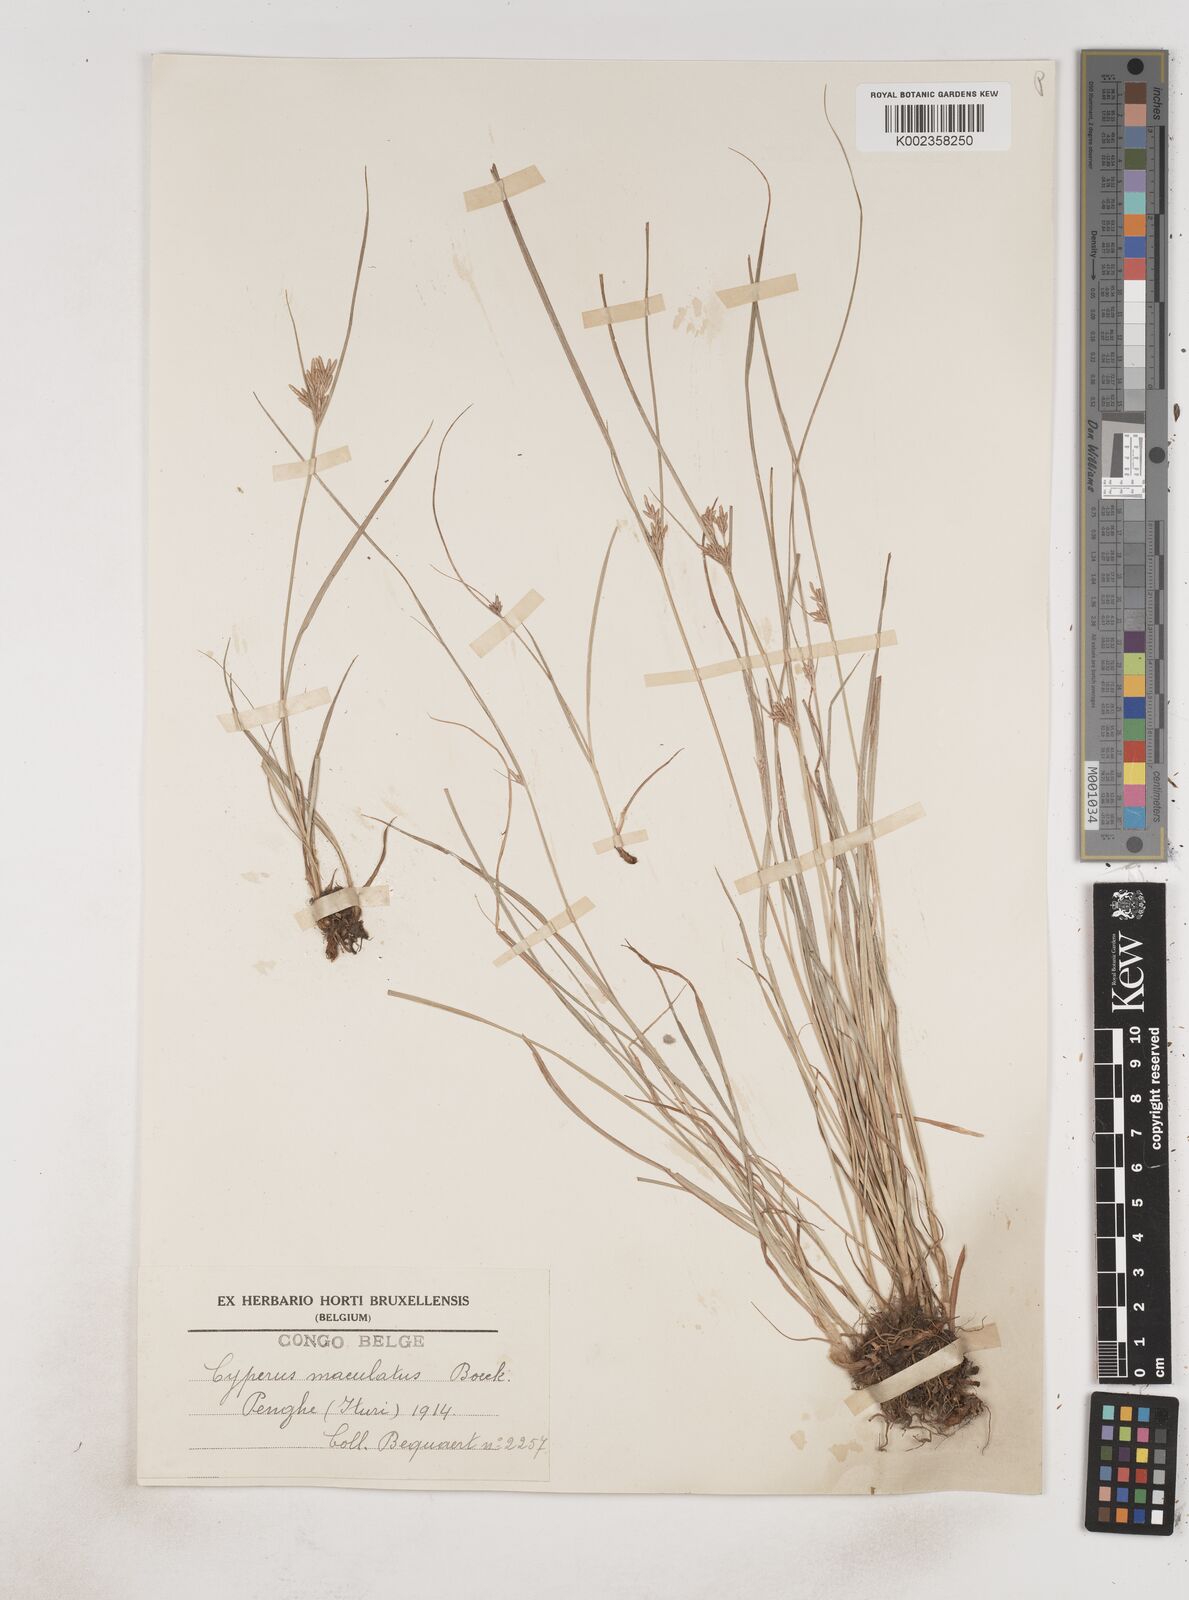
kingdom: Plantae
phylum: Tracheophyta
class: Liliopsida
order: Poales
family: Cyperaceae
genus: Cyperus
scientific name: Cyperus maculatus
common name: Maculated sedge
